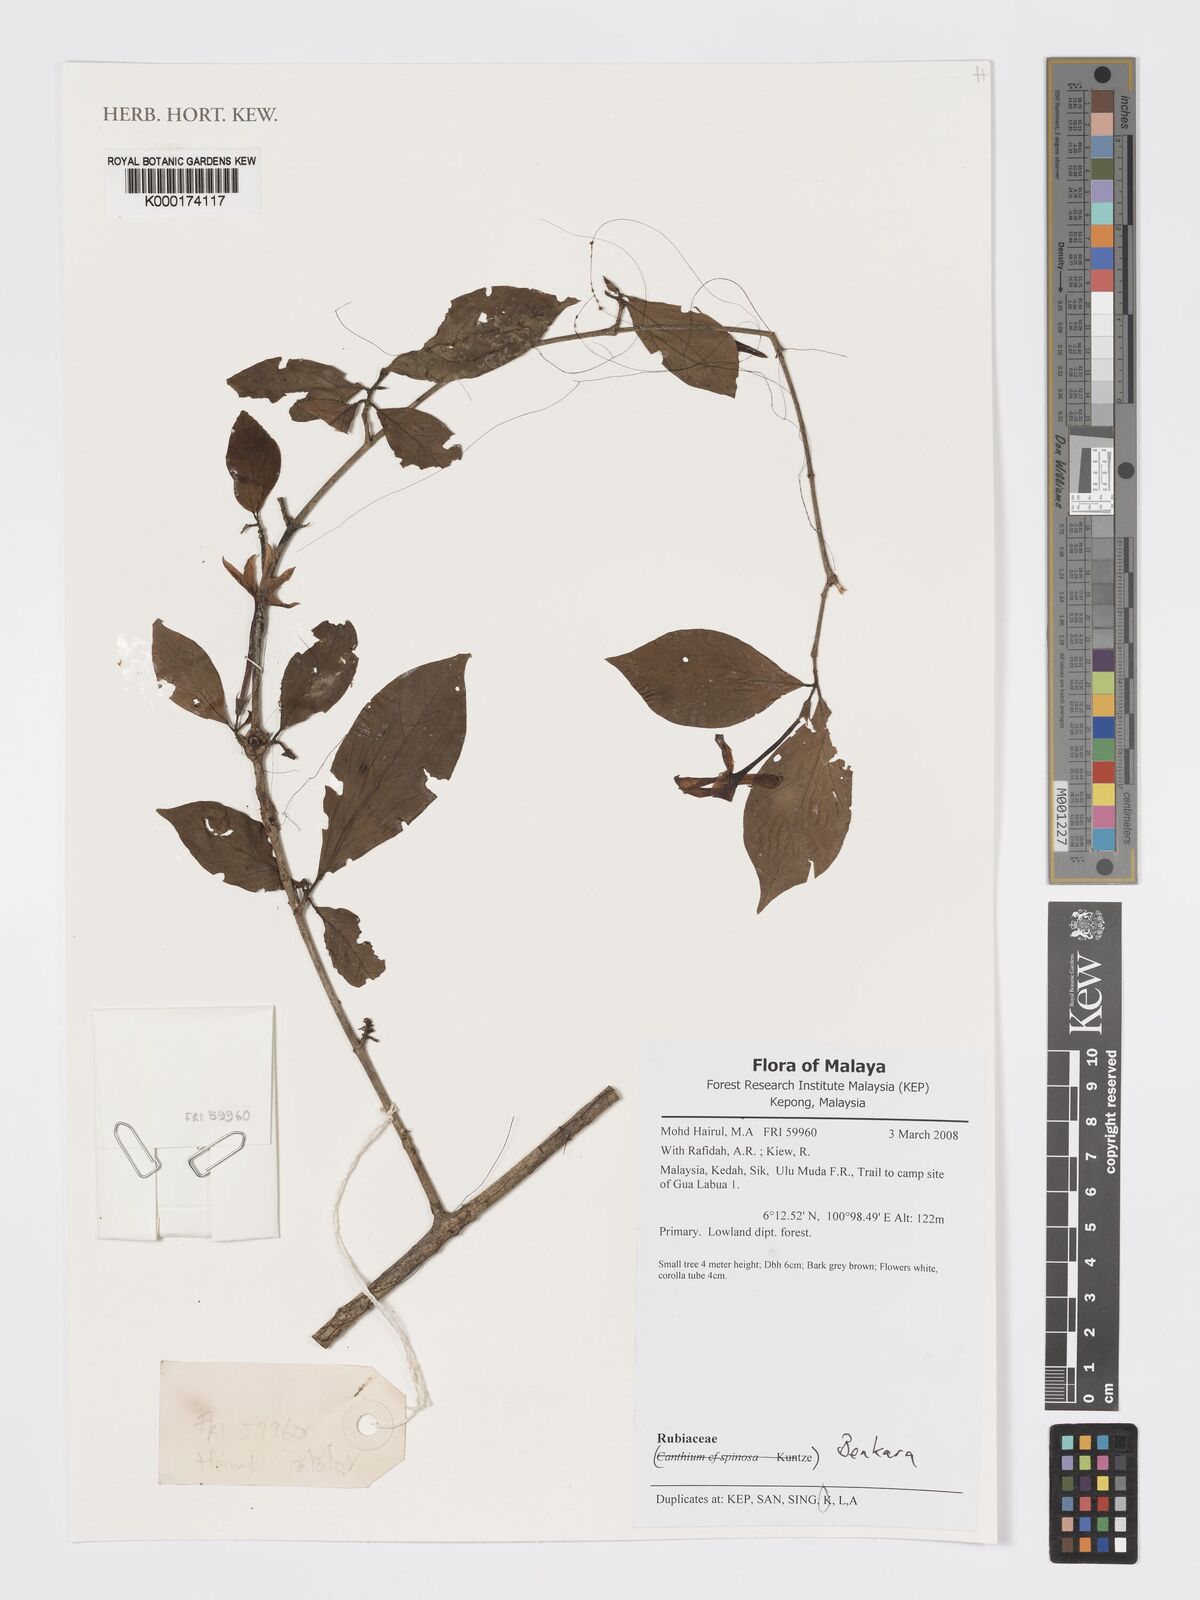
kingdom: Plantae
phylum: Tracheophyta
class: Magnoliopsida
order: Gentianales
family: Rubiaceae
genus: Benkara
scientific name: Benkara
